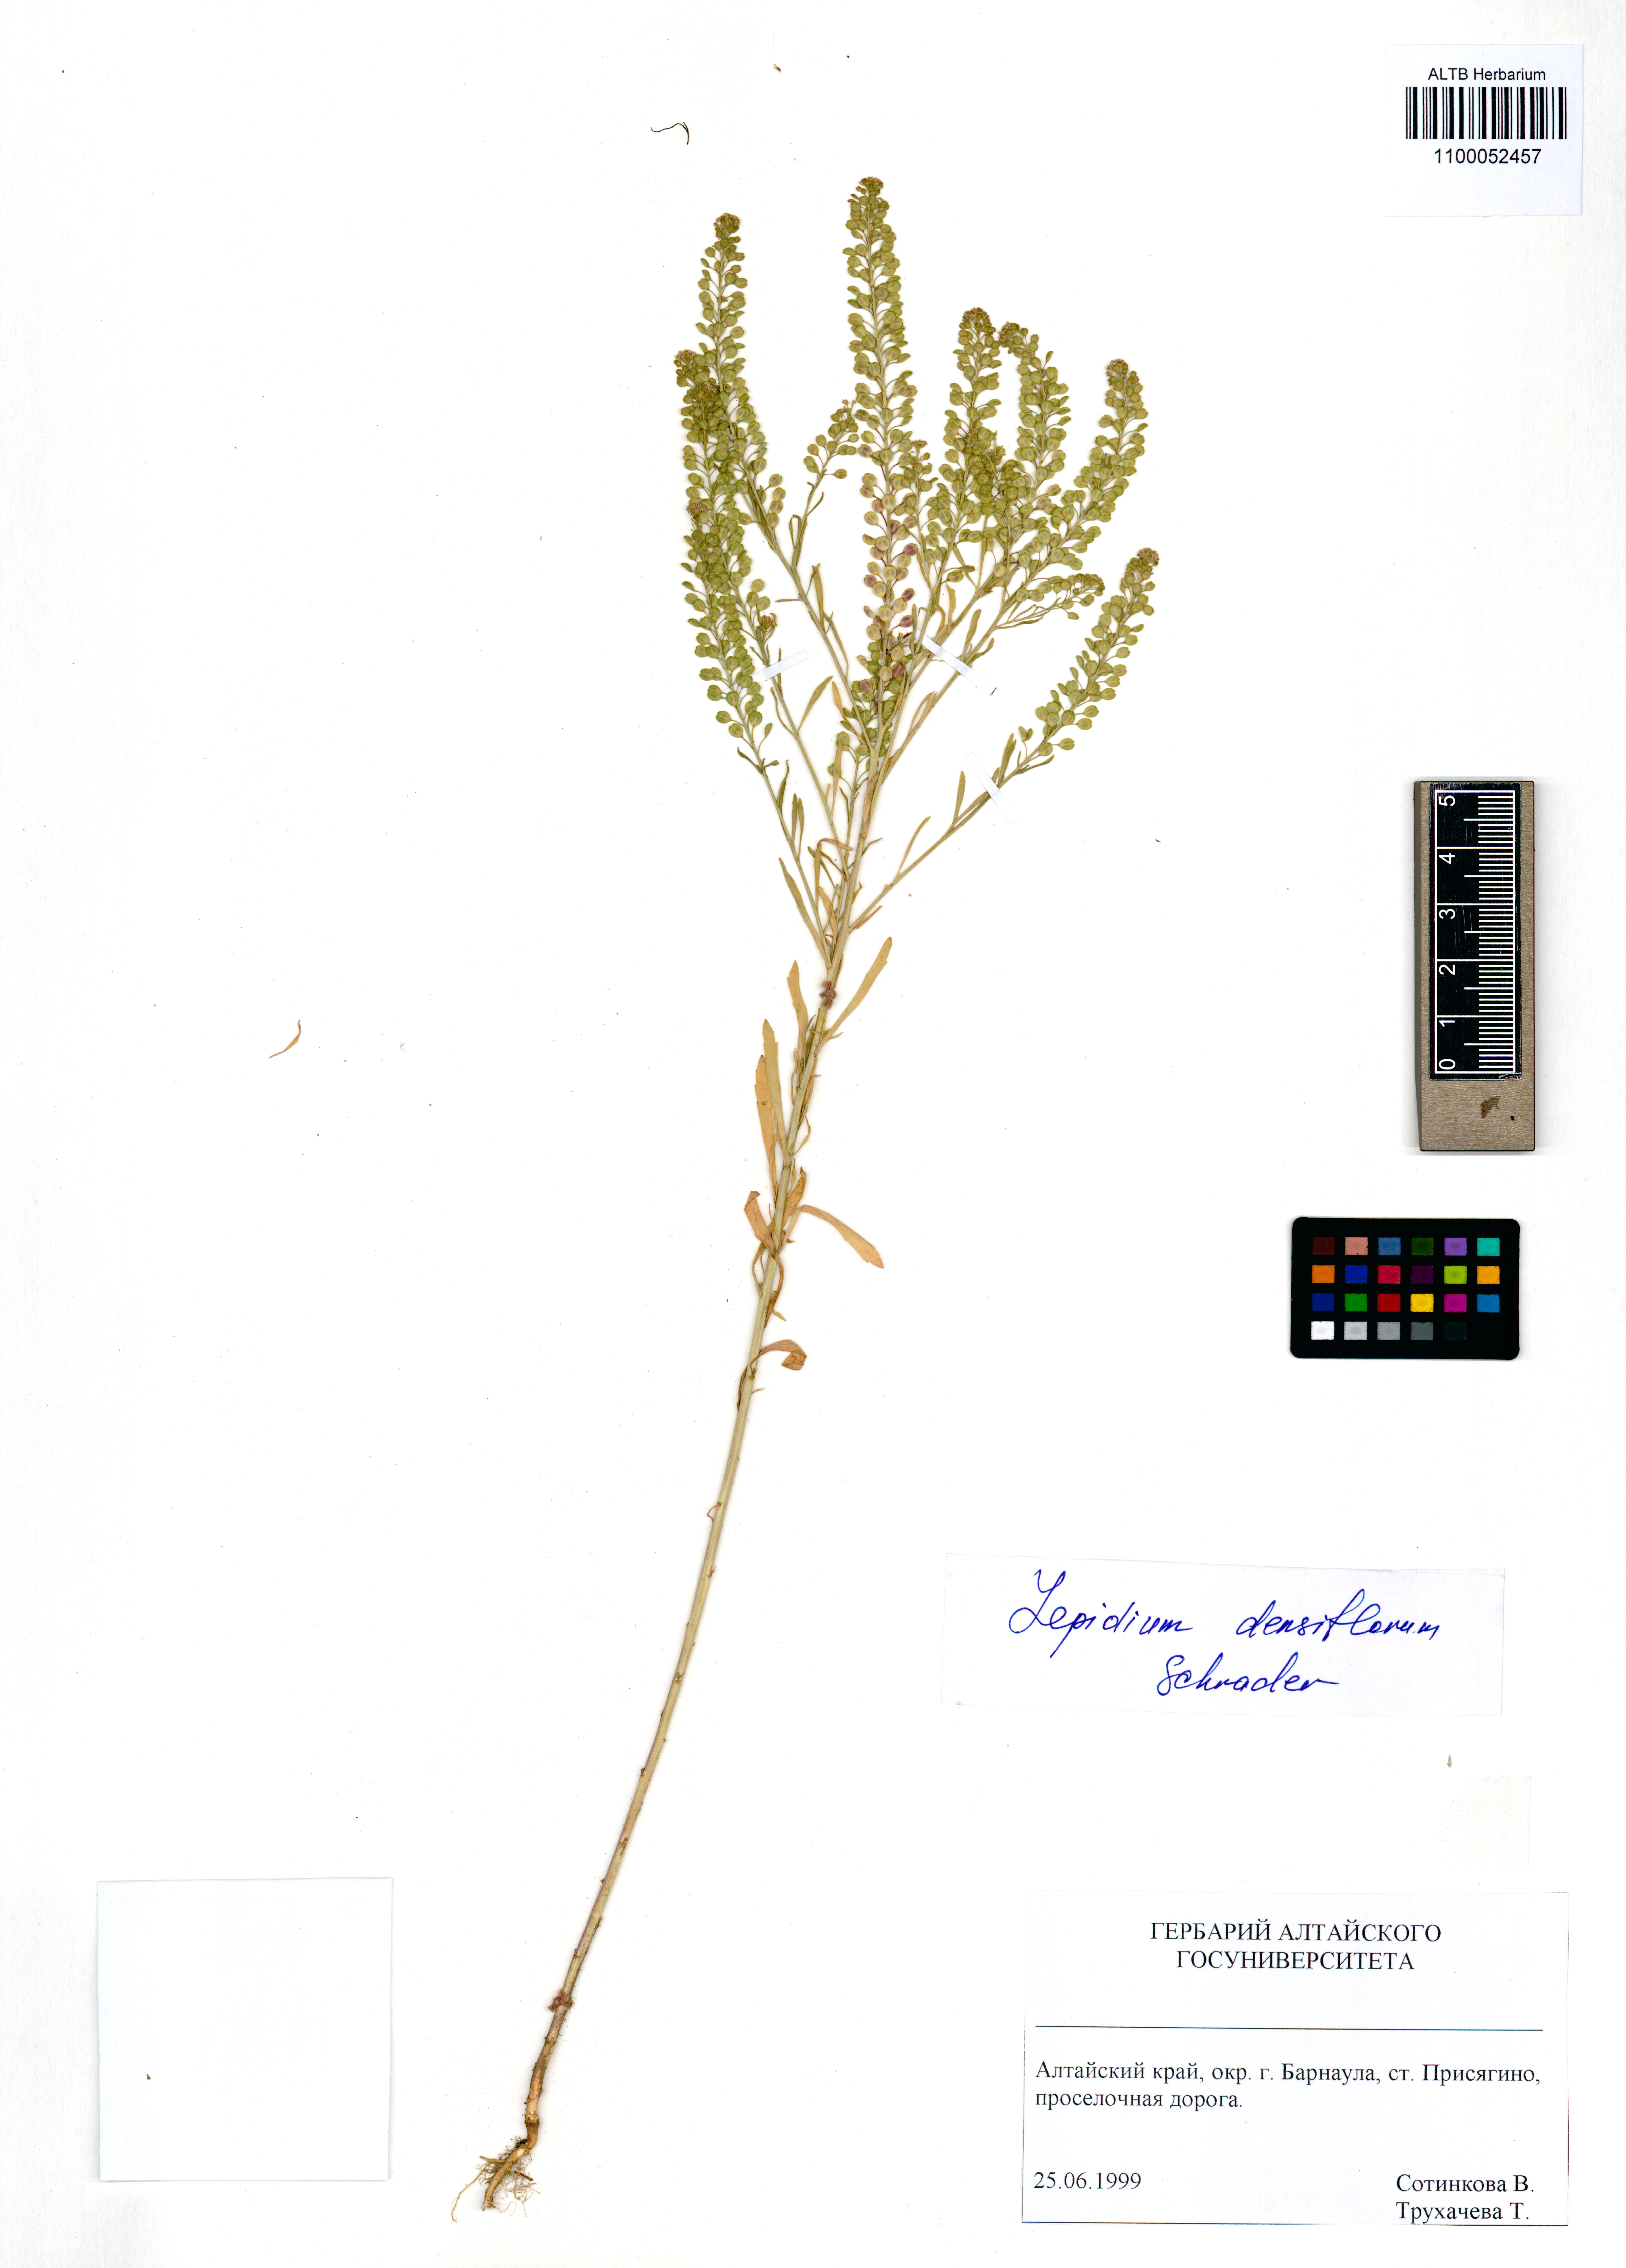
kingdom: Plantae
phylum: Tracheophyta
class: Magnoliopsida
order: Brassicales
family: Brassicaceae
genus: Lepidium
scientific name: Lepidium densiflorum
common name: Miner's pepperwort
